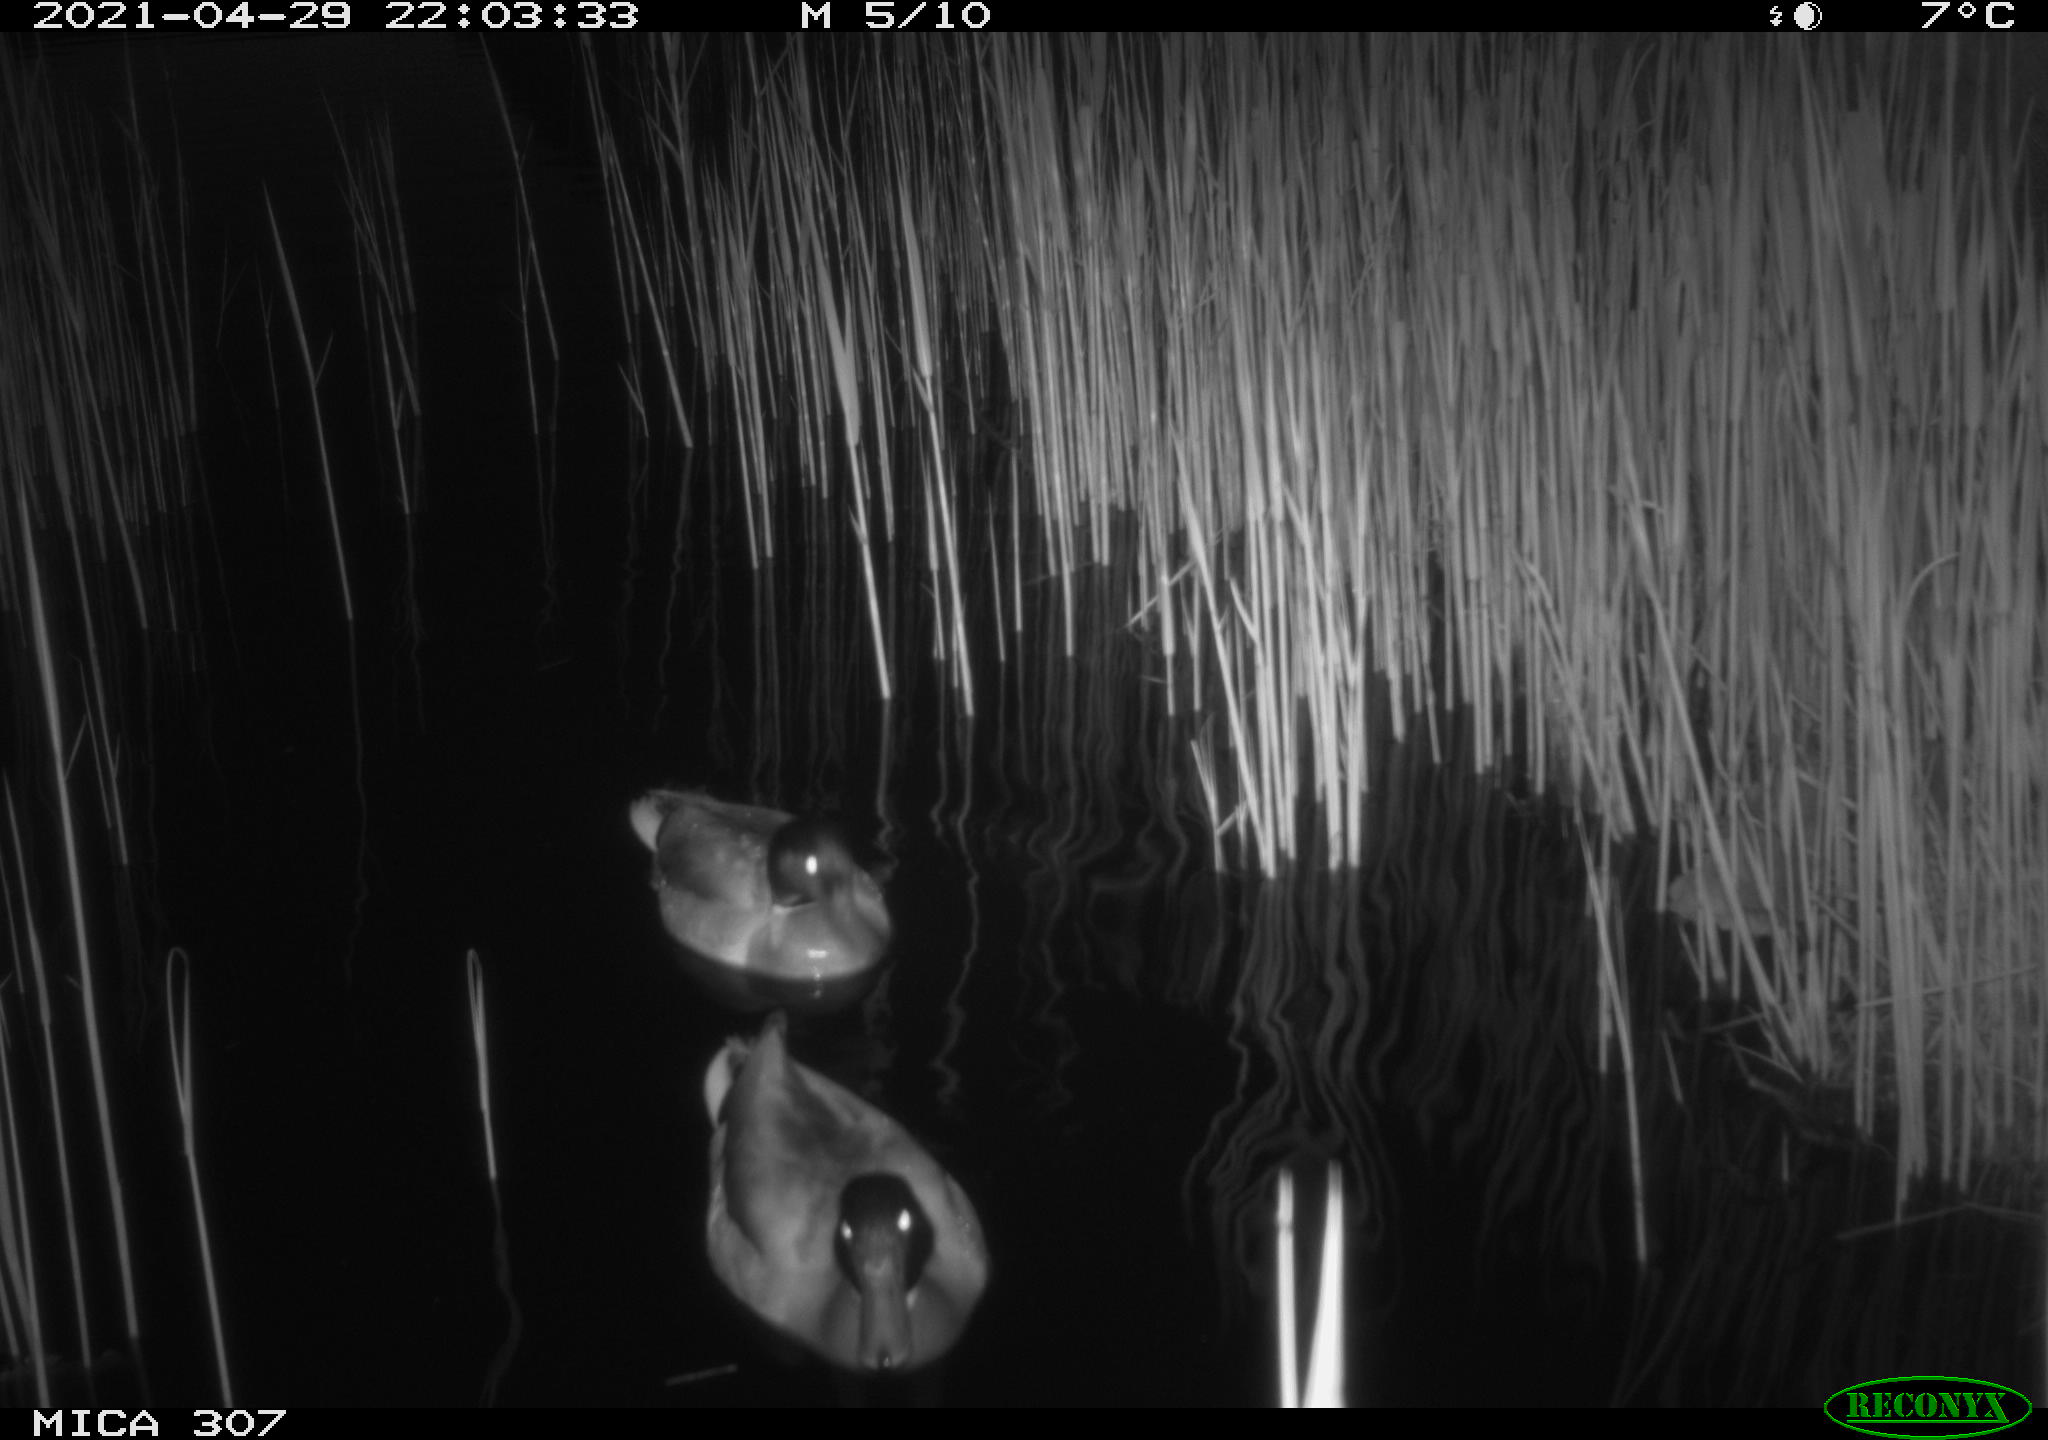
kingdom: Animalia
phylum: Chordata
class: Aves
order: Anseriformes
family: Anatidae
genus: Anas
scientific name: Anas platyrhynchos
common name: Mallard
